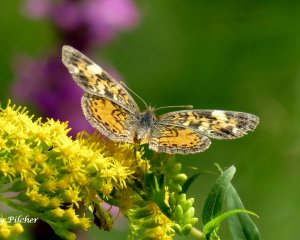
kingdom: Animalia
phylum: Arthropoda
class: Insecta
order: Lepidoptera
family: Nymphalidae
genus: Phyciodes
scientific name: Phyciodes tharos
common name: Pearl Crescent
